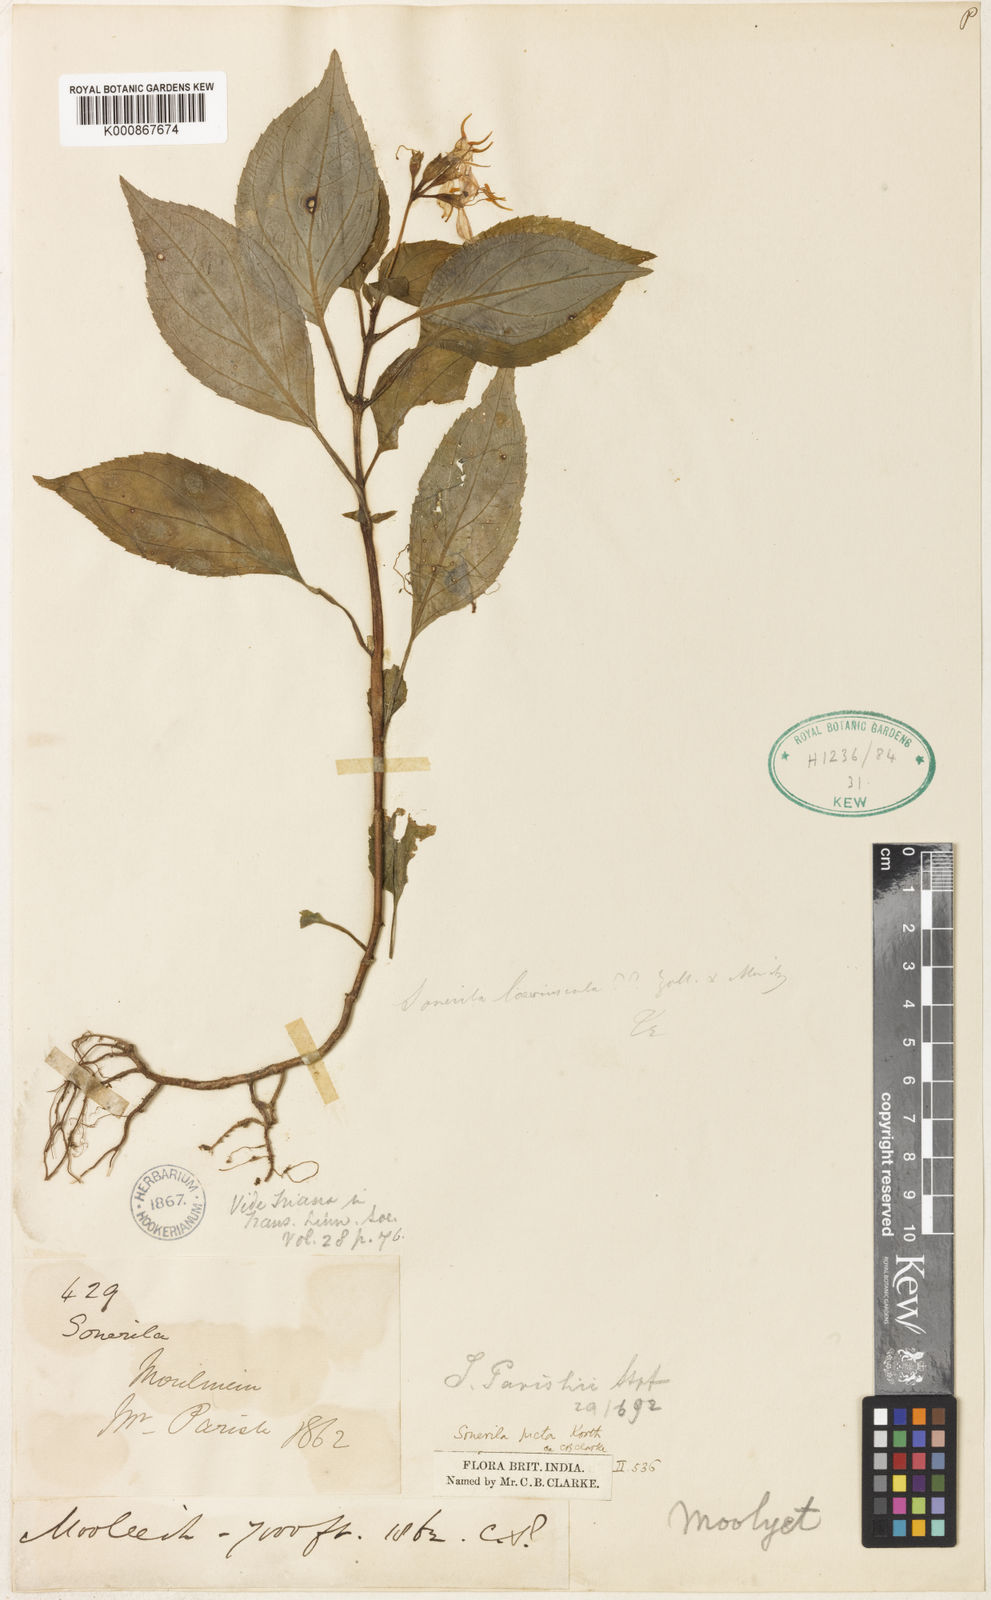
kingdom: Plantae
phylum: Tracheophyta
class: Magnoliopsida
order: Myrtales
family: Melastomataceae
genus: Sonerila
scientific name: Sonerila parishii
